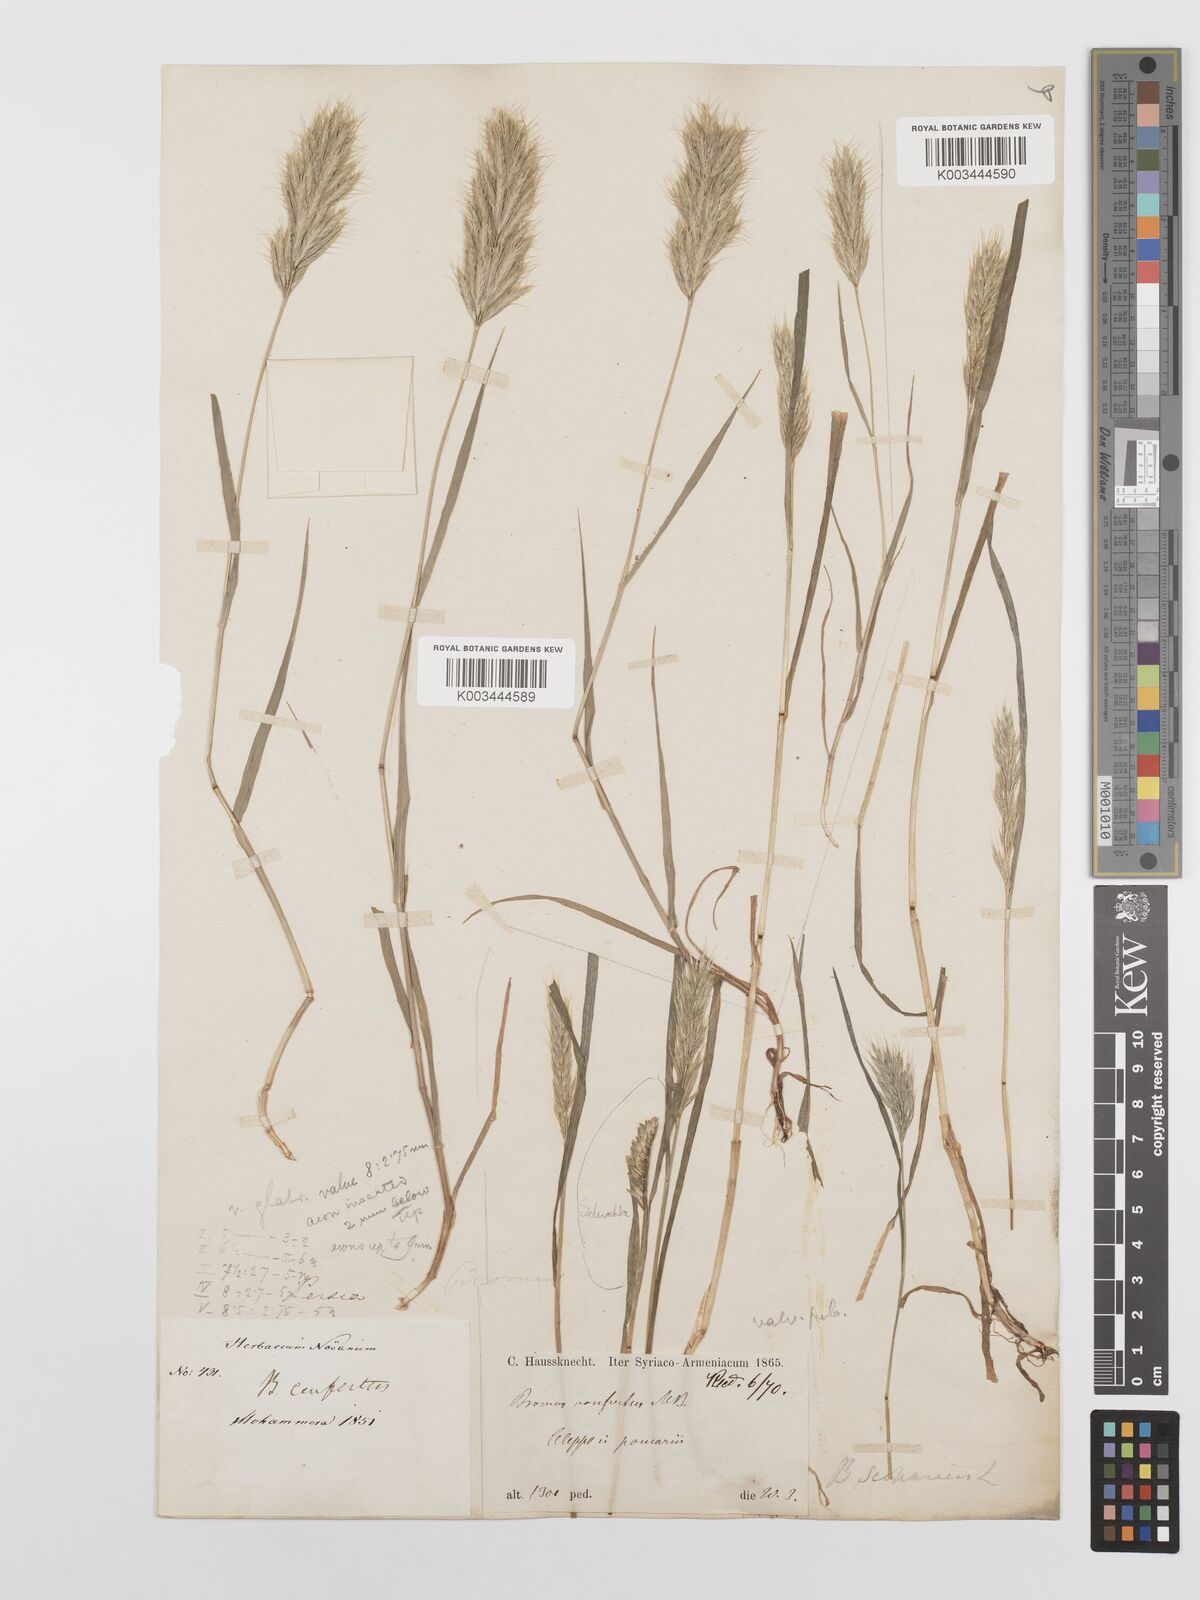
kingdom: Plantae
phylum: Tracheophyta
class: Liliopsida
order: Poales
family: Poaceae
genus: Bromus
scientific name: Bromus scoparius
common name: Broom brome
